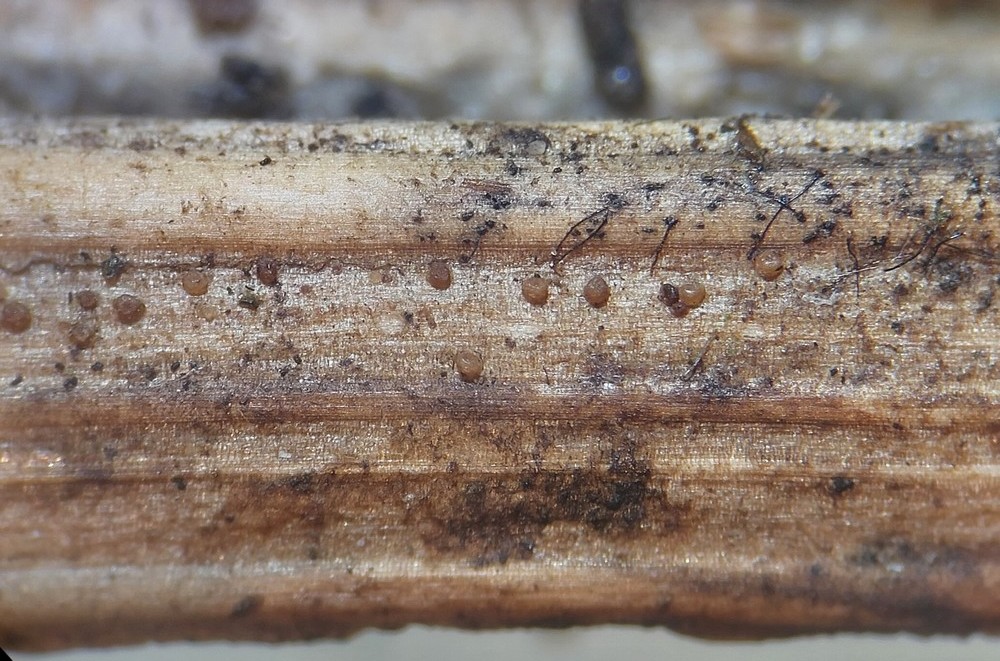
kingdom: Fungi
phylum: Ascomycota
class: Dothideomycetes
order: Tubeufiales
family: Tubeufiaceae
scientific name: Tubeufiaceae
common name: tyksækkrukkefamilien
